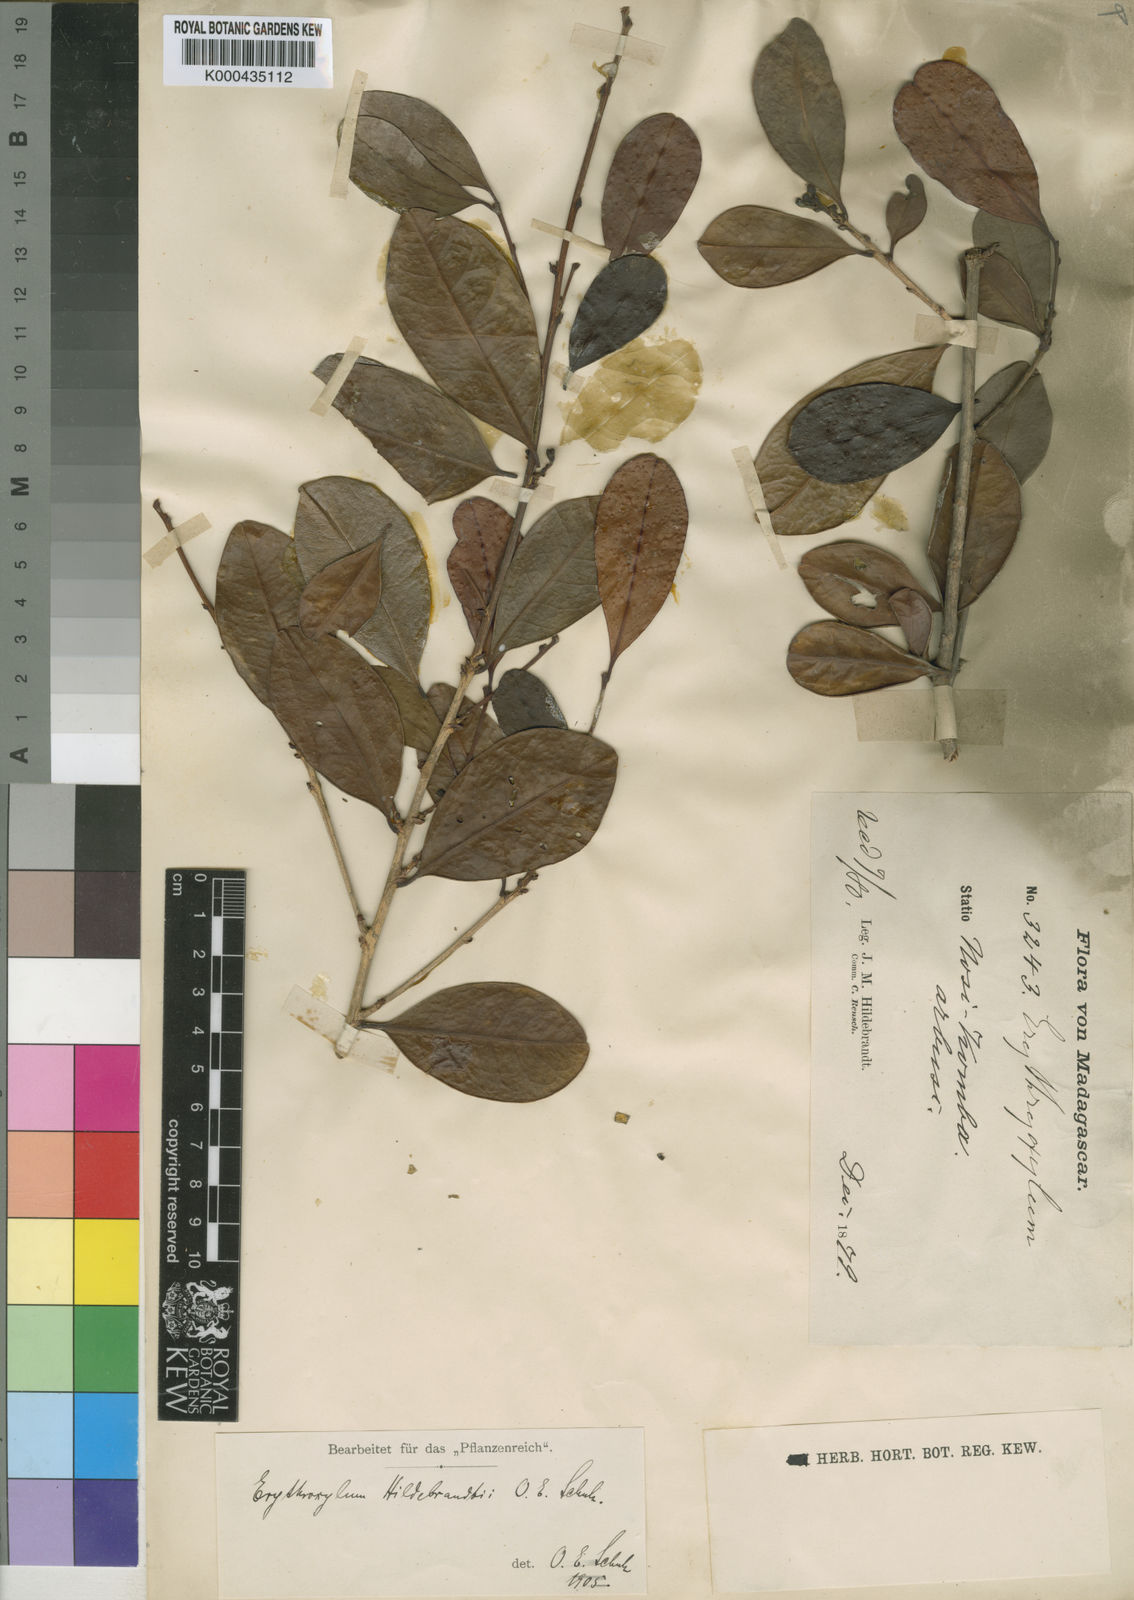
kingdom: Plantae
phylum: Tracheophyta
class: Magnoliopsida
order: Malpighiales
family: Erythroxylaceae
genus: Erythroxylum
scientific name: Erythroxylum coffeifolium
